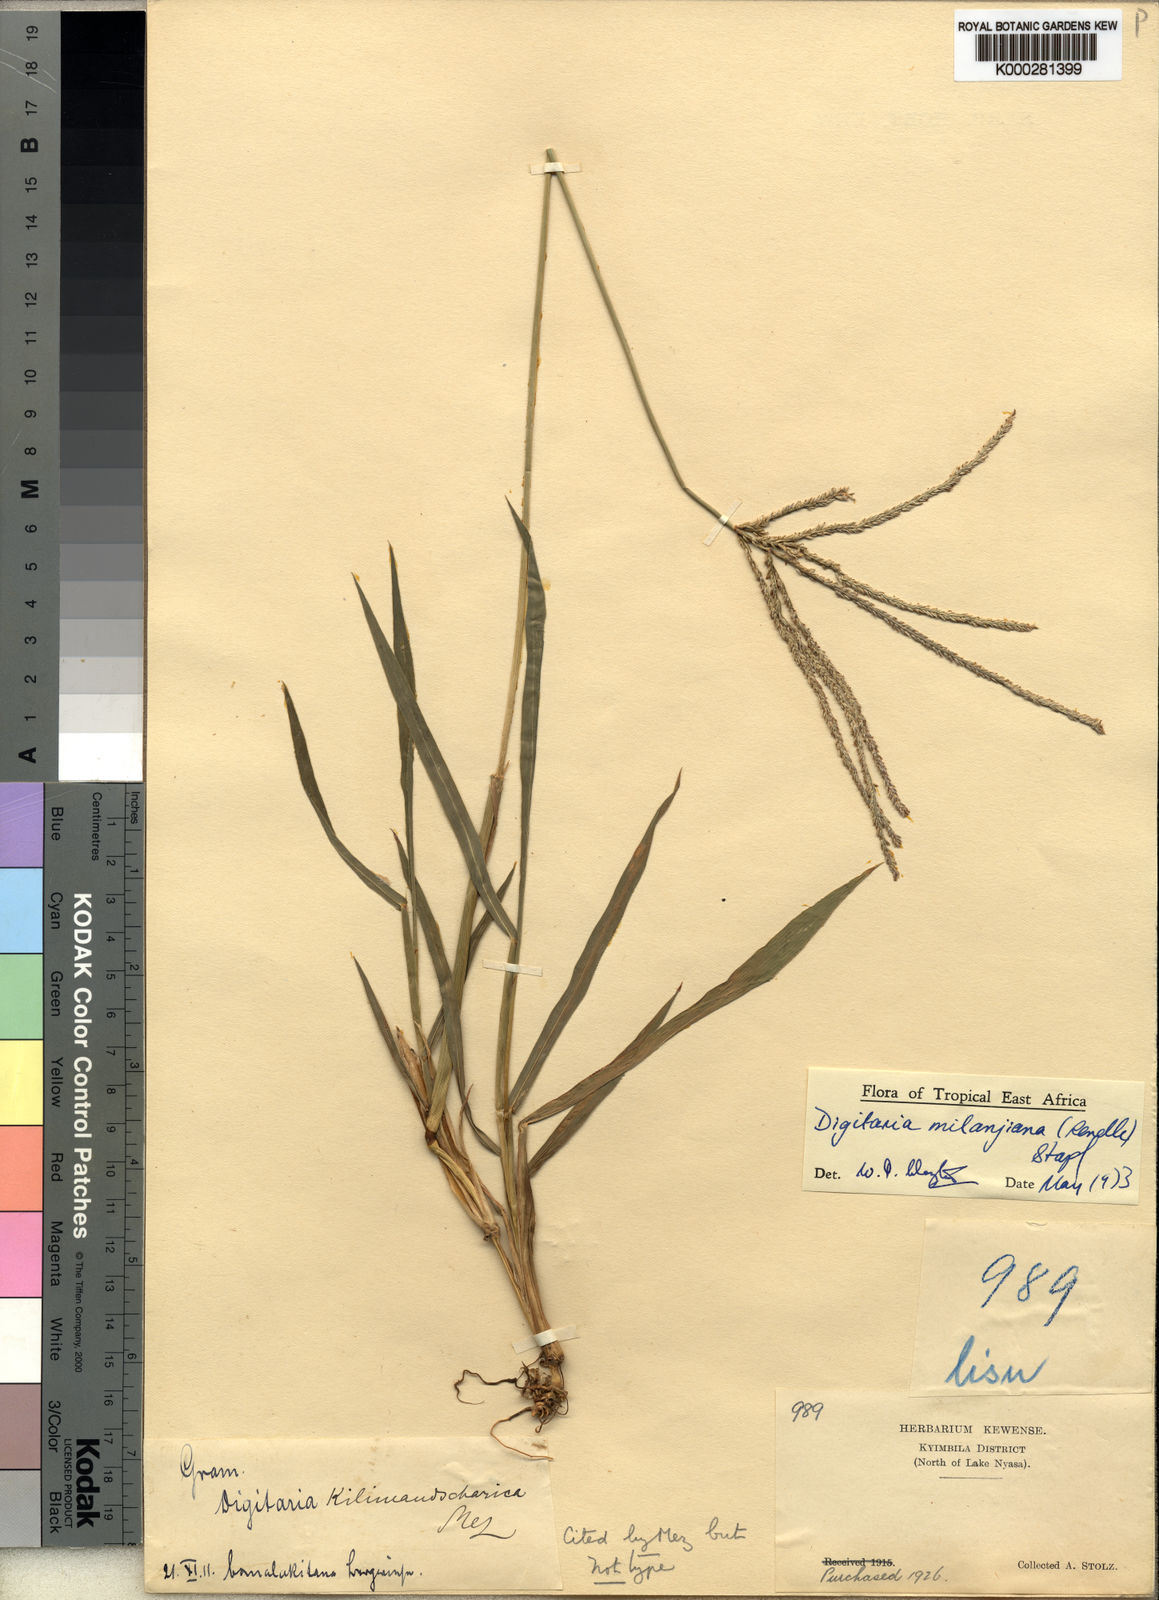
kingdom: Plantae
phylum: Tracheophyta
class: Liliopsida
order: Poales
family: Poaceae
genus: Digitaria
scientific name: Digitaria milanjiana
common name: Madagascar crabgrass
